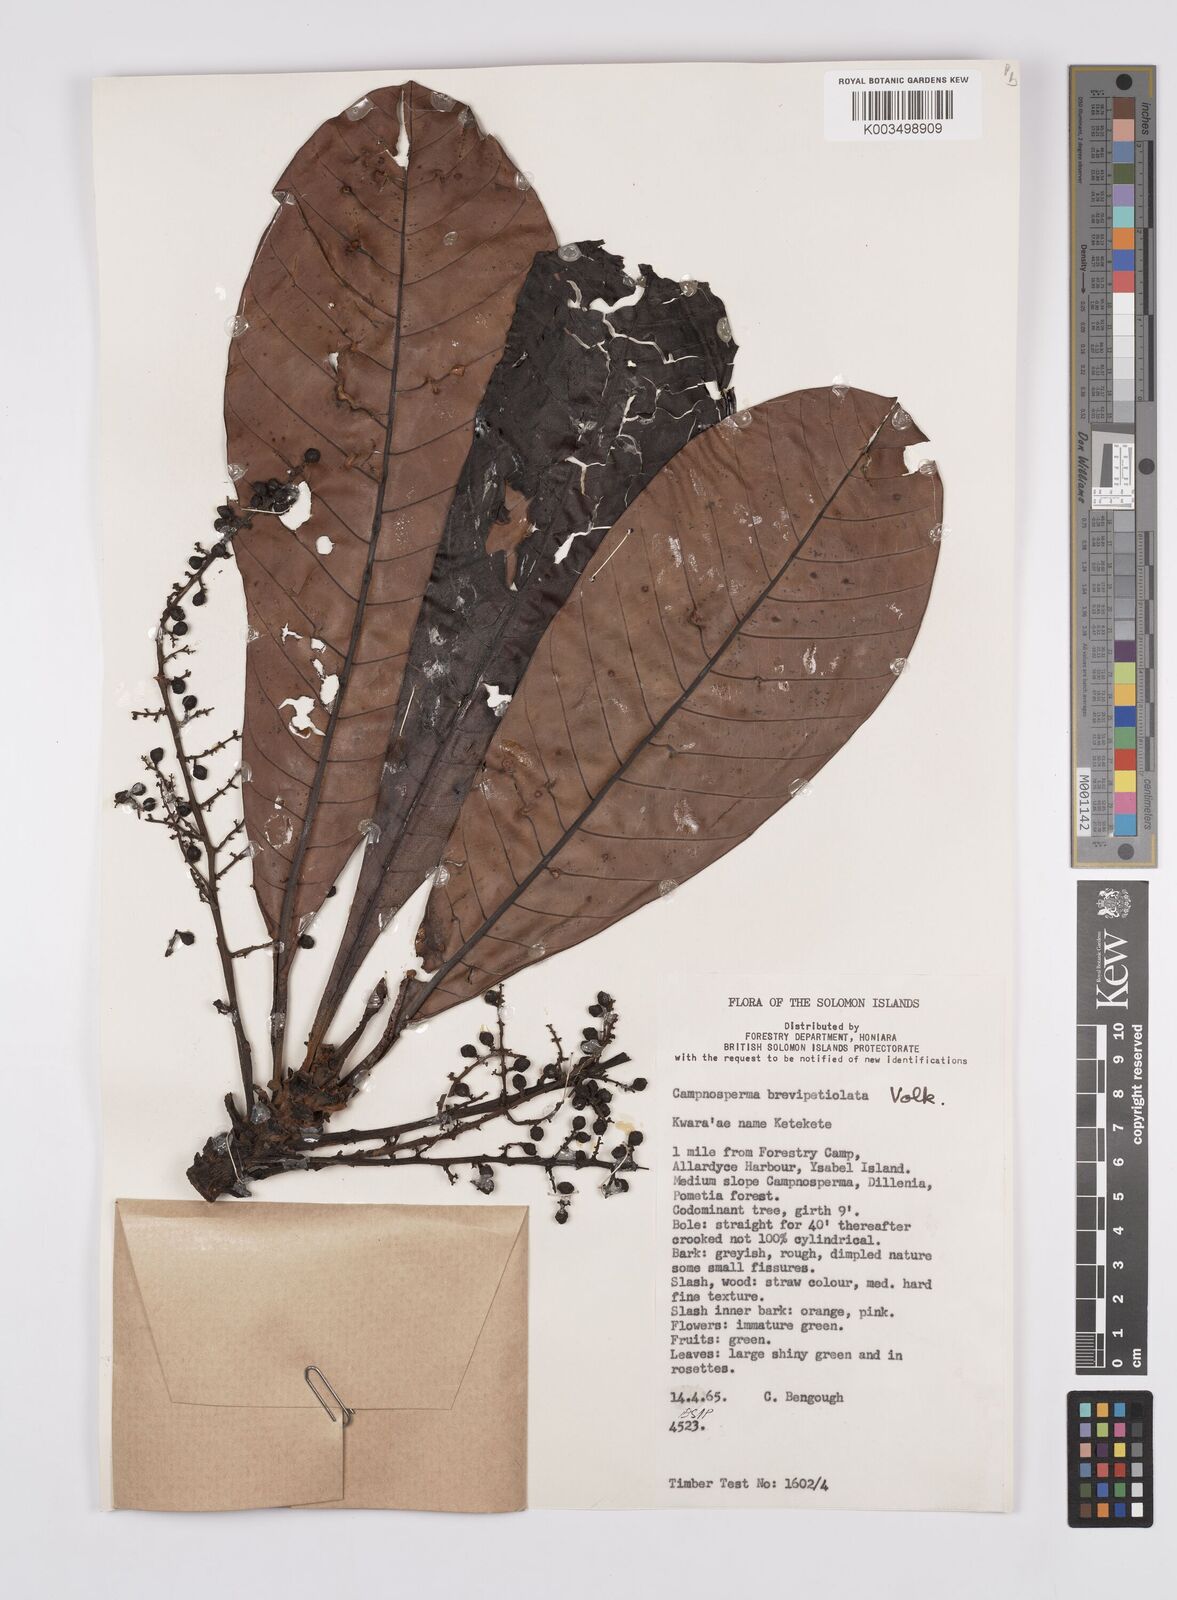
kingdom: Plantae
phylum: Tracheophyta
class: Magnoliopsida
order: Sapindales
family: Anacardiaceae
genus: Campnosperma
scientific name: Campnosperma brevipetiolatum
